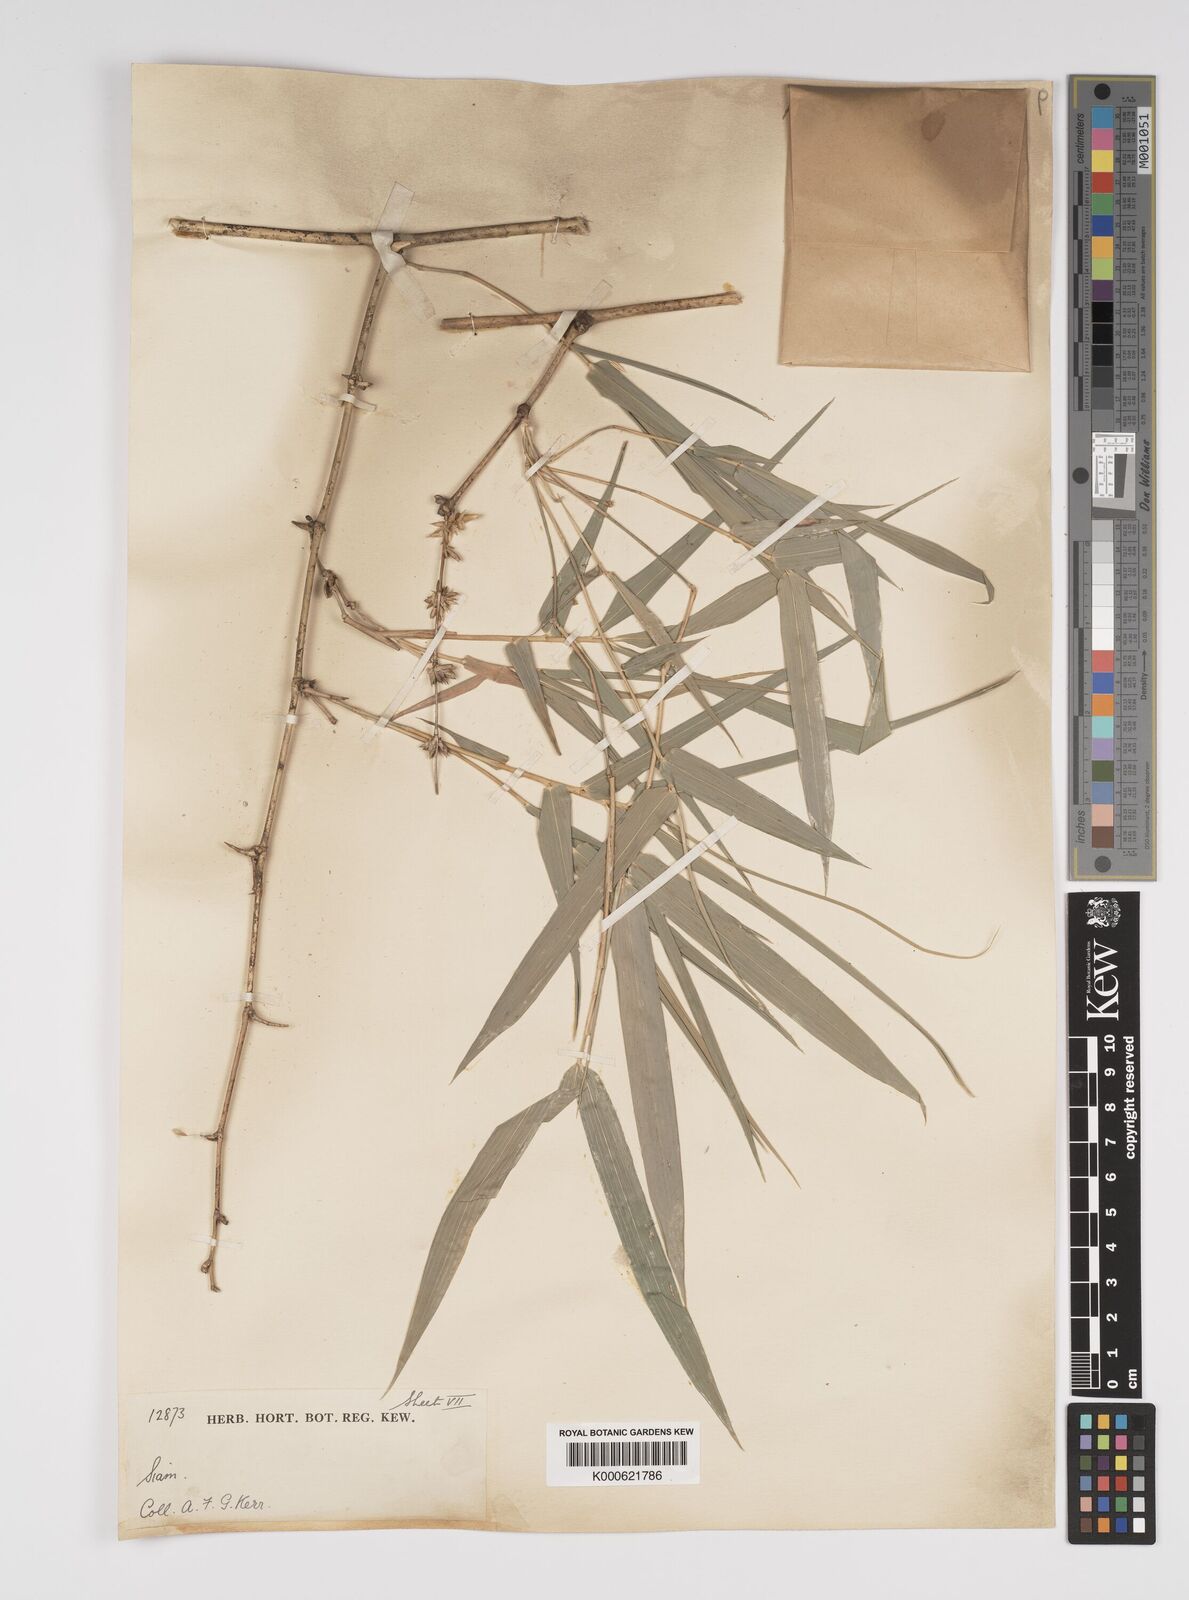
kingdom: Plantae
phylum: Tracheophyta
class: Liliopsida
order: Poales
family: Poaceae
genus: Bambusa
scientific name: Bambusa bambos
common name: Indian thorny bamboo
